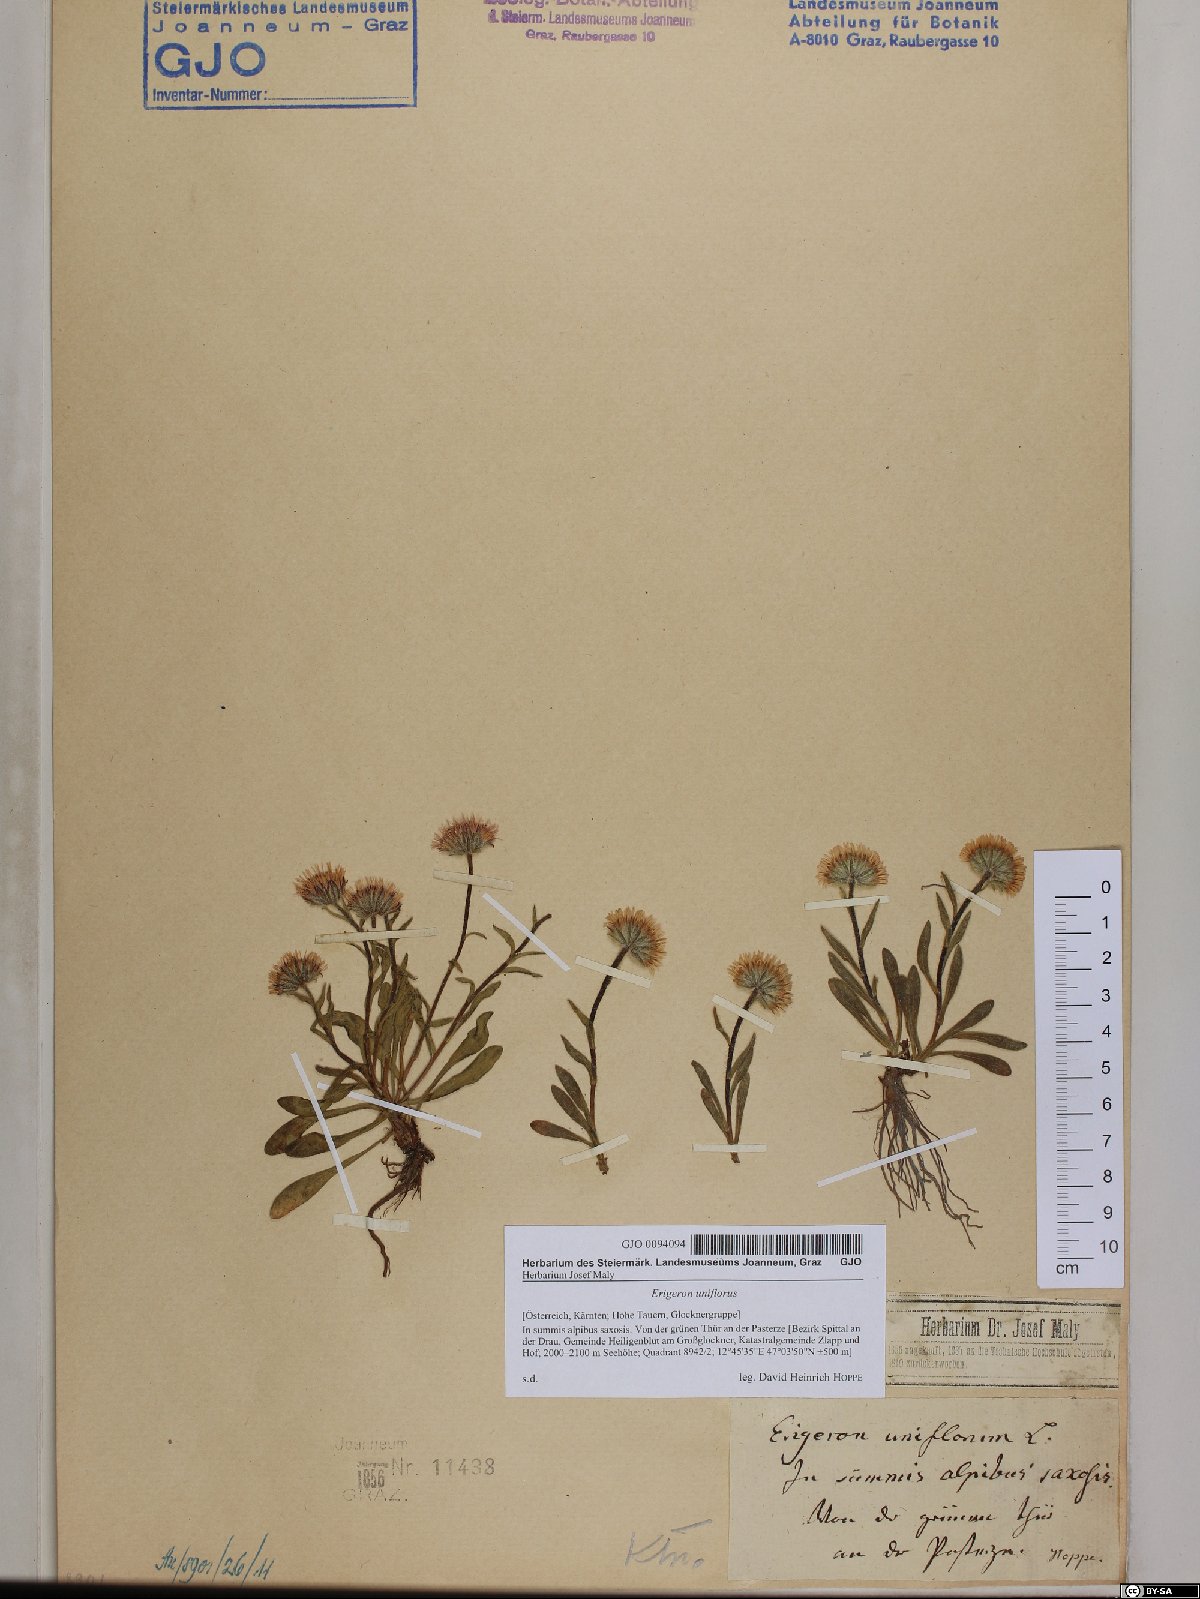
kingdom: Plantae
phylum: Tracheophyta
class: Magnoliopsida
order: Asterales
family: Asteraceae
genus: Erigeron
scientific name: Erigeron uniflorus
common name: Northern daisy
